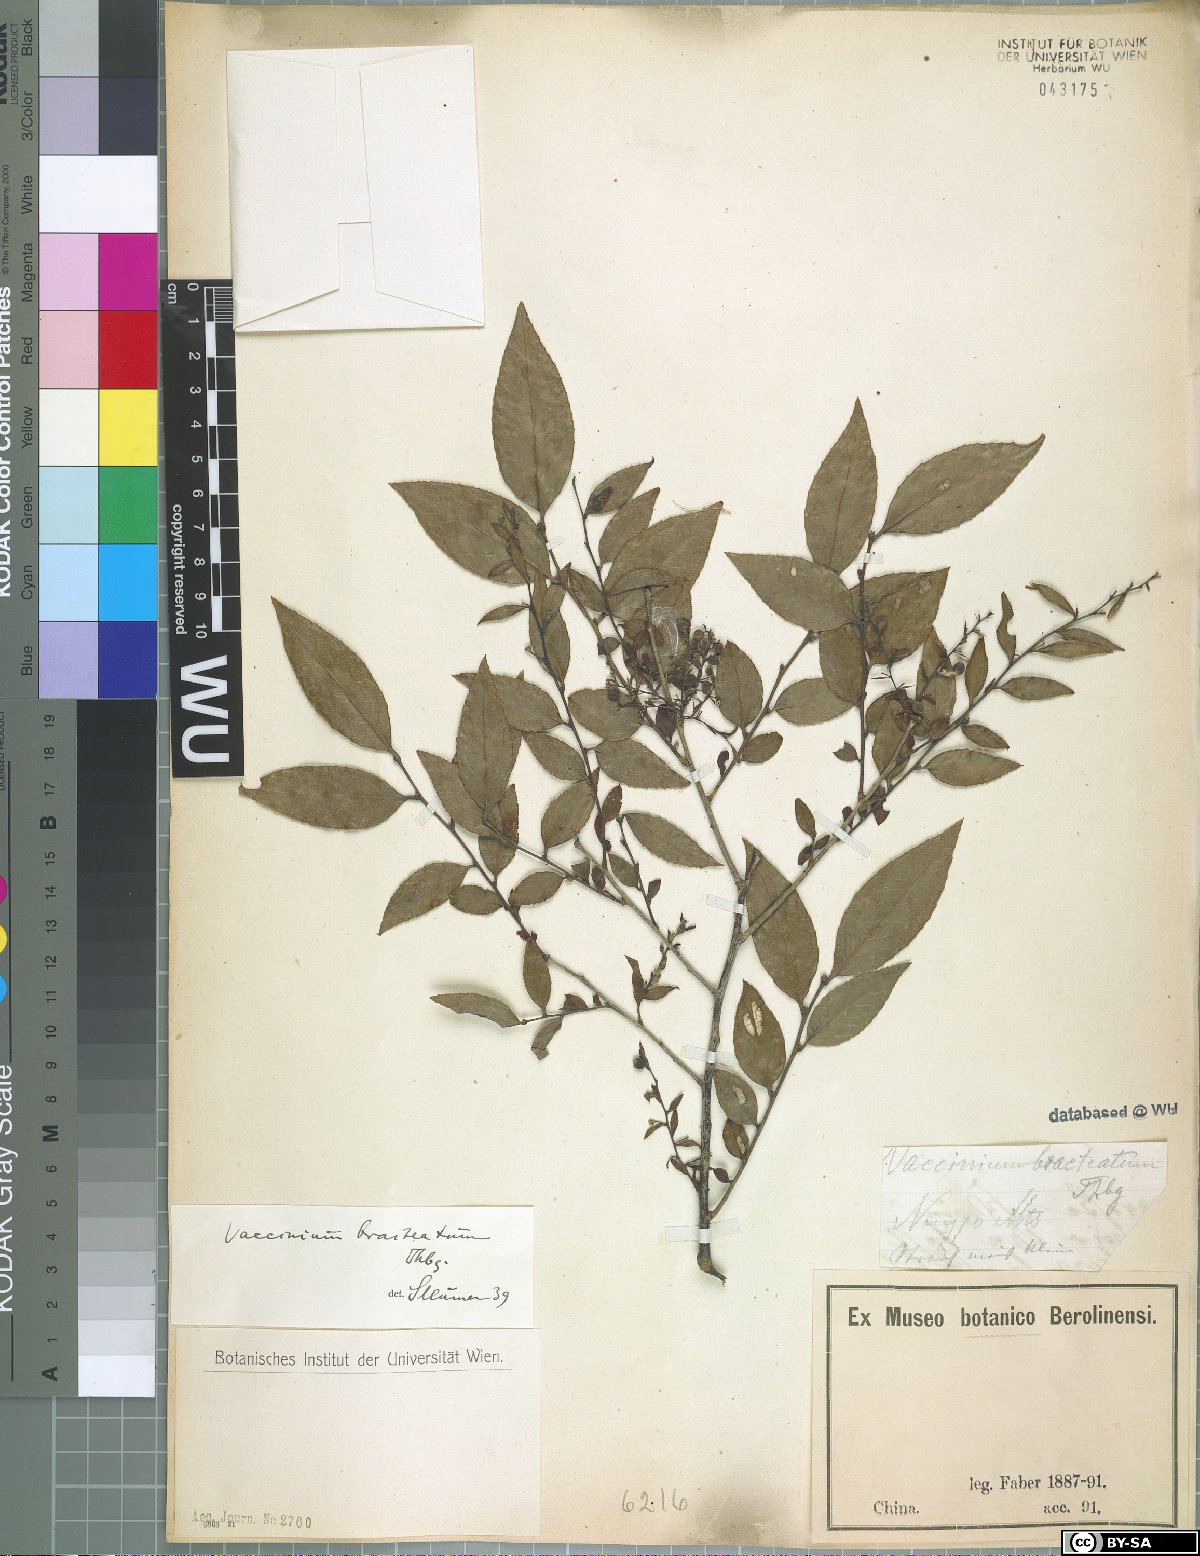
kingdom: Plantae
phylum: Tracheophyta
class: Magnoliopsida
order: Ericales
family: Ericaceae
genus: Vaccinium
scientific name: Vaccinium bracteatum
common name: Sea bilberry
